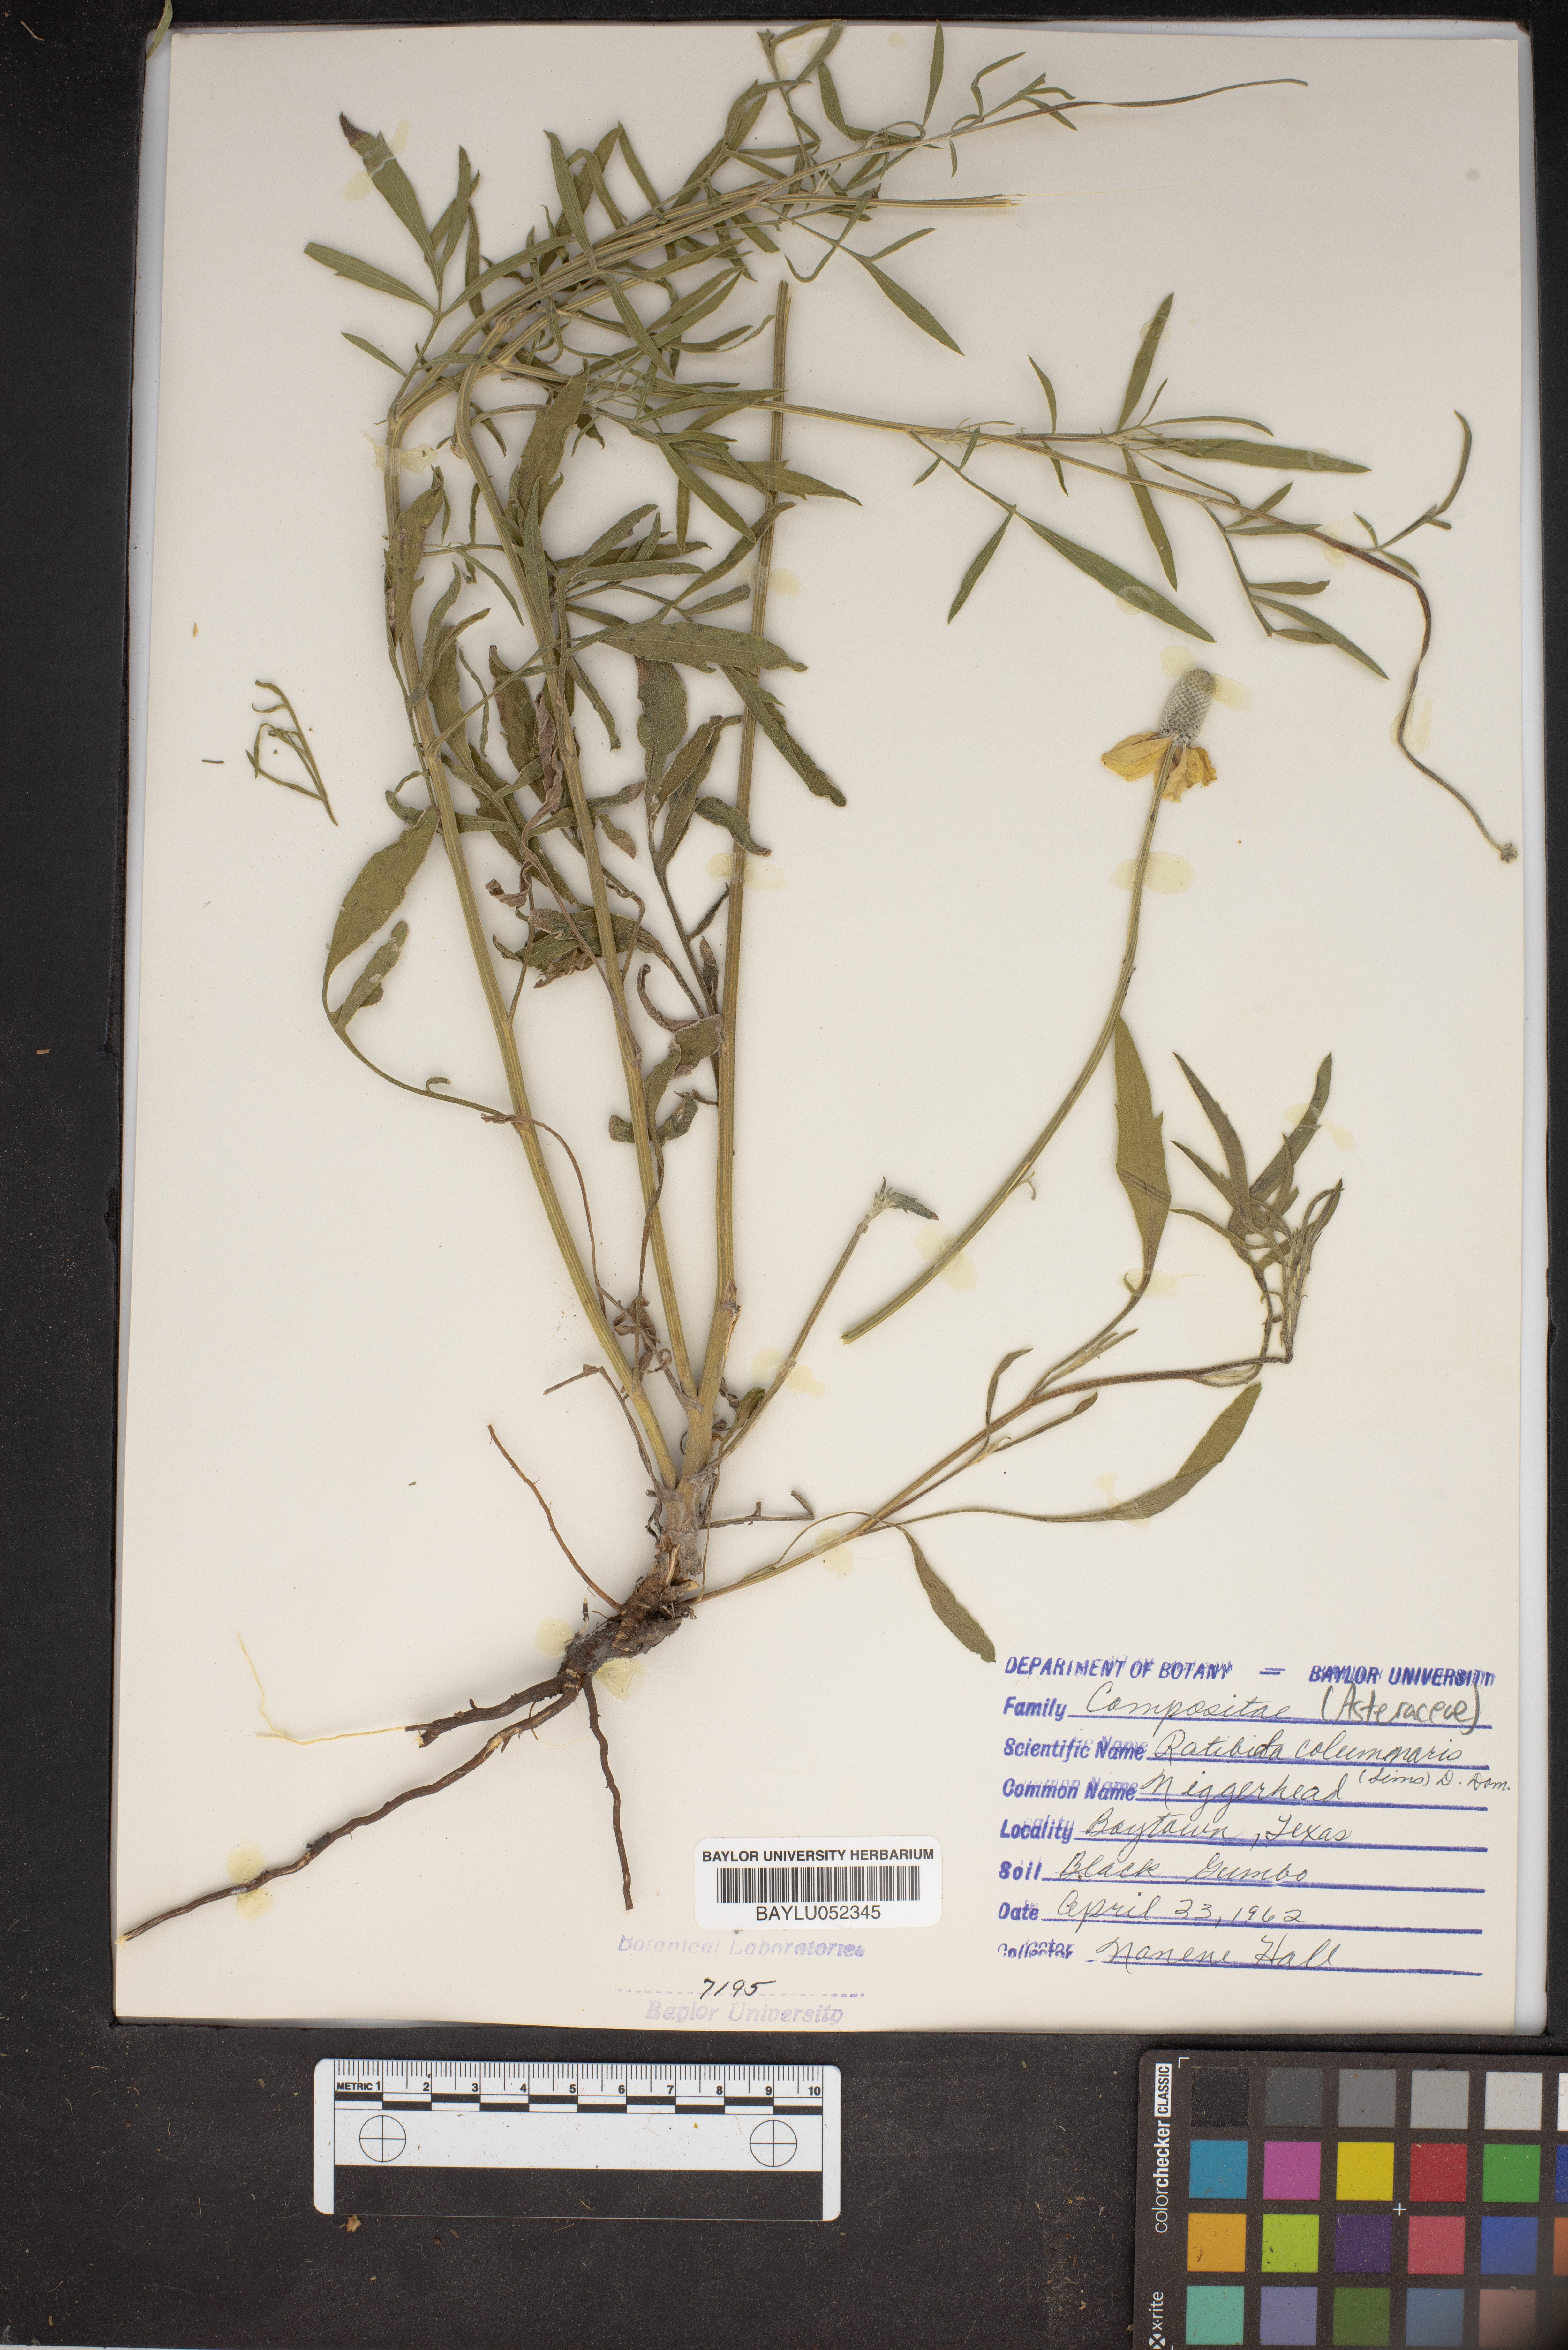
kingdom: Plantae
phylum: Tracheophyta
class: Magnoliopsida
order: Asterales
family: Asteraceae
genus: Ratibida
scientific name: Ratibida columnifera
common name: Prairie coneflower
